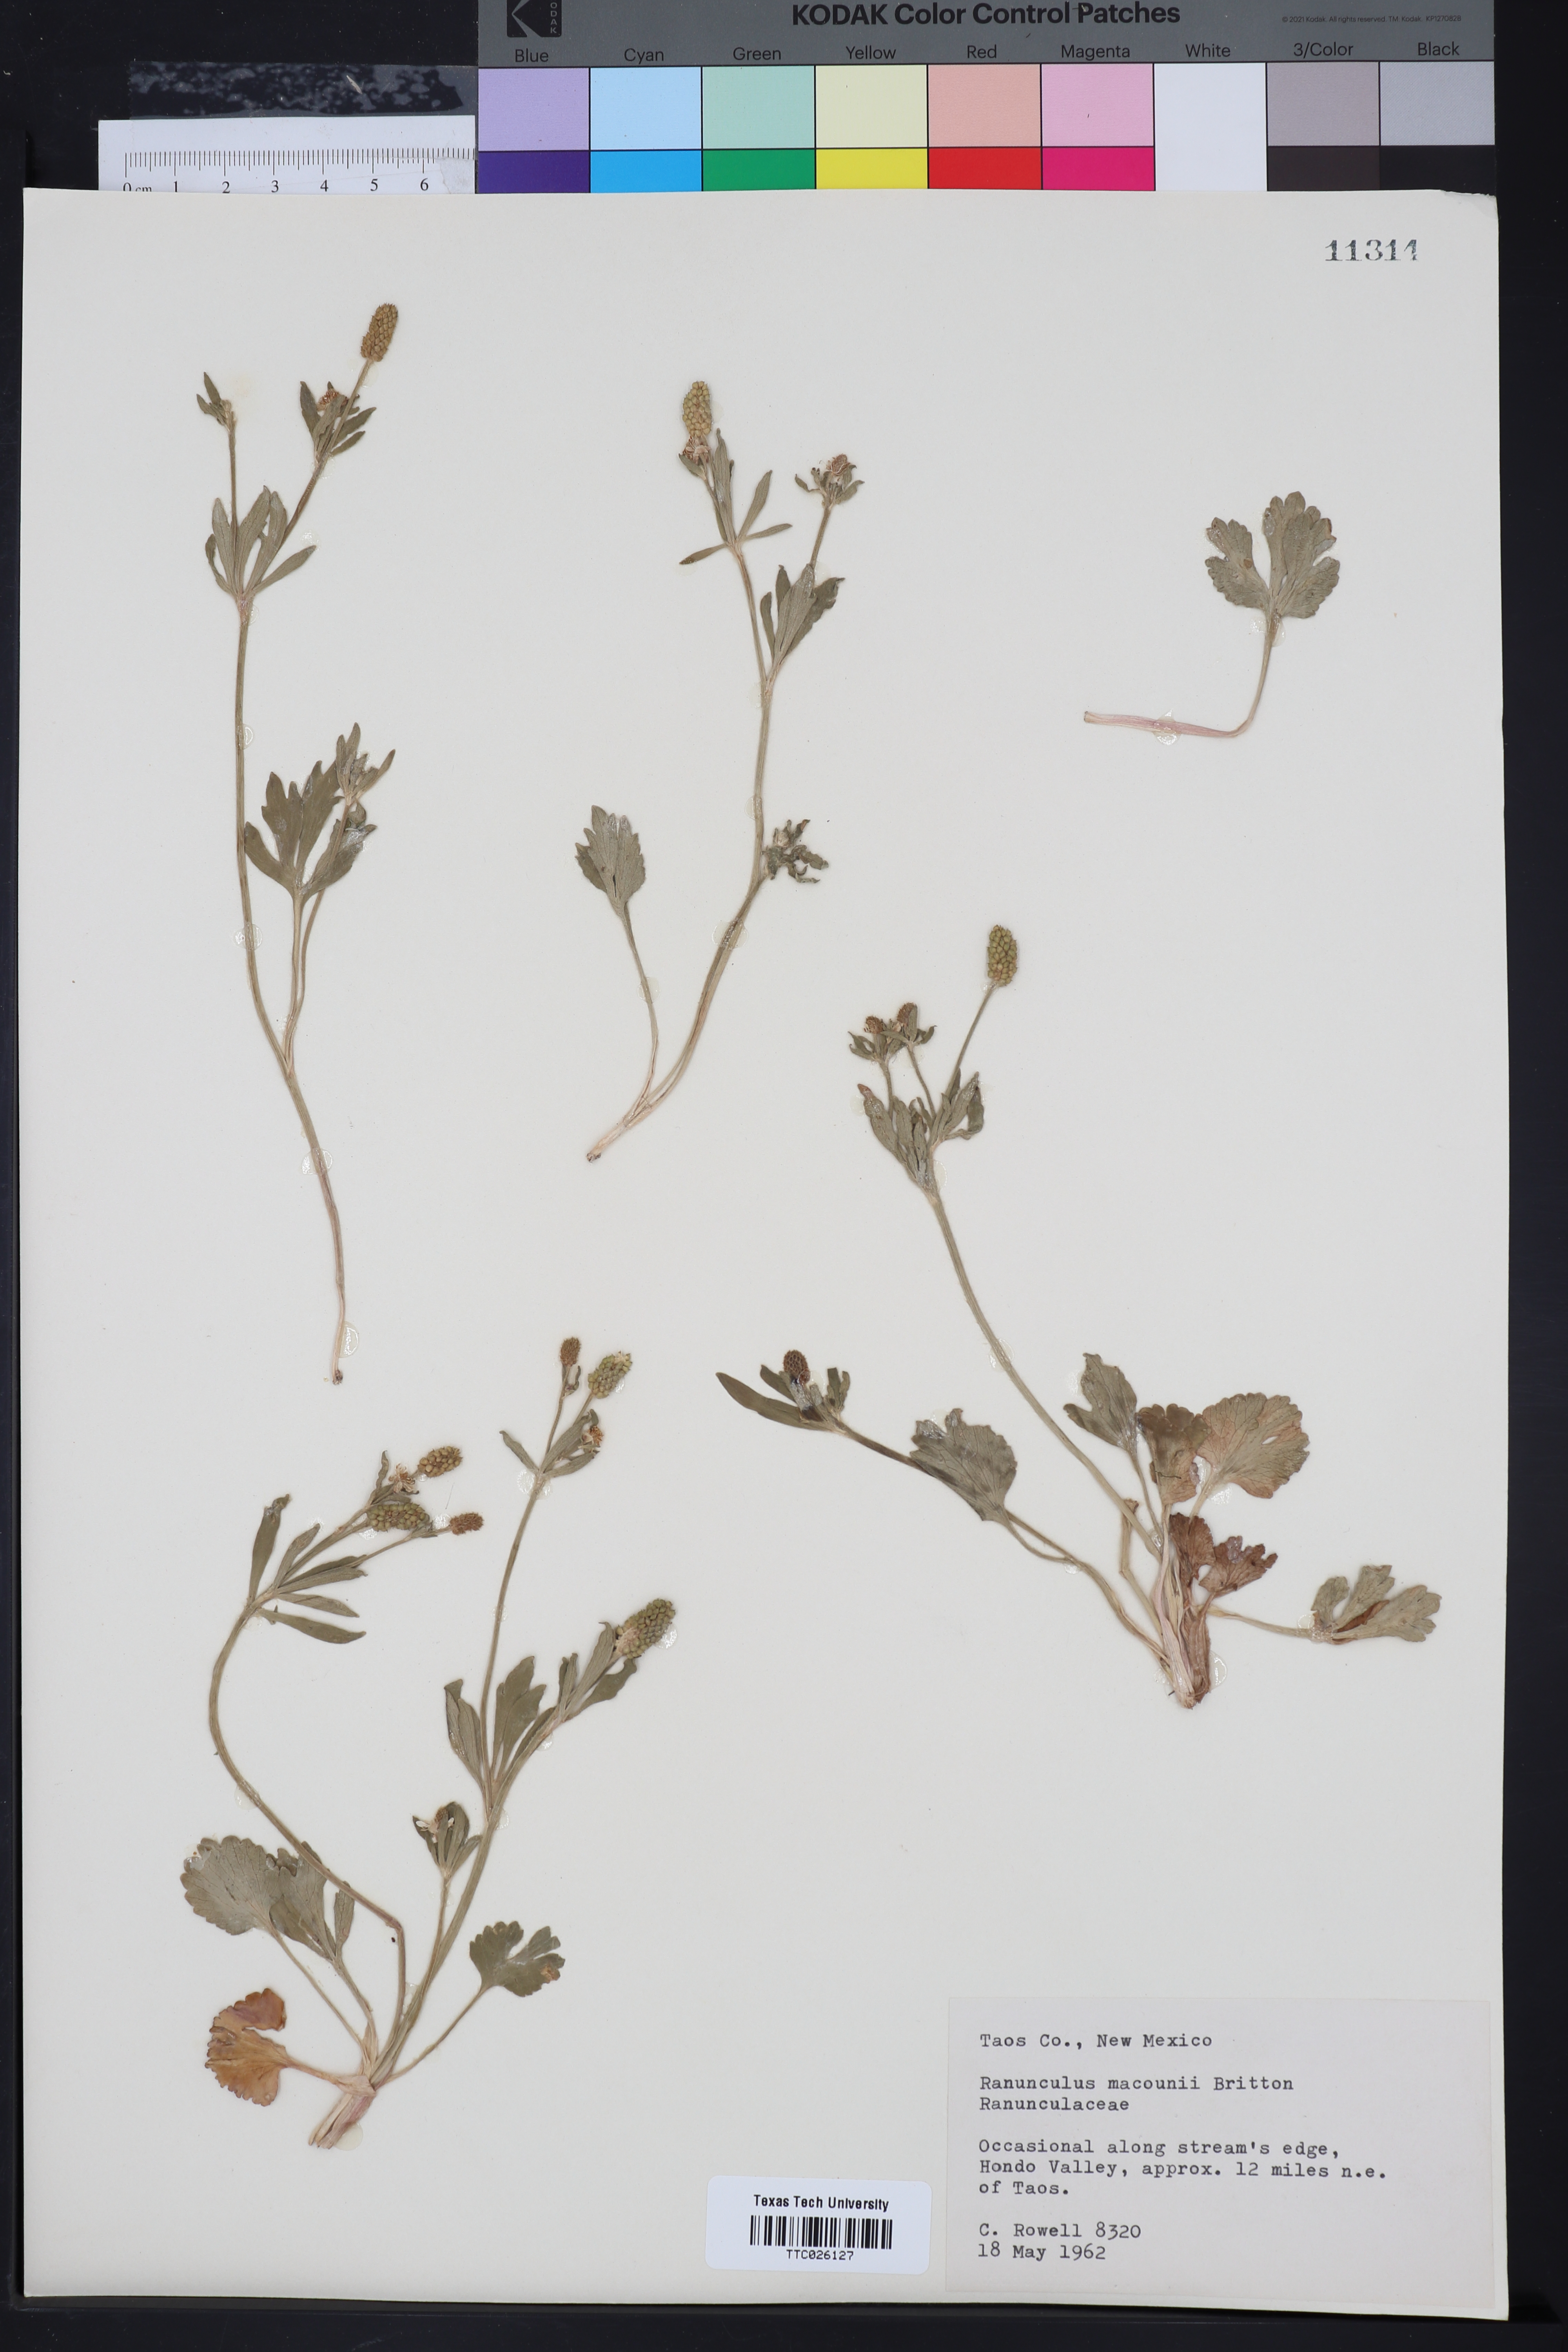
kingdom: Plantae
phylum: Tracheophyta
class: Magnoliopsida
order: Ranunculales
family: Ranunculaceae
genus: Ranunculus
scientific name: Ranunculus macounii
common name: Macoun's buttercup
